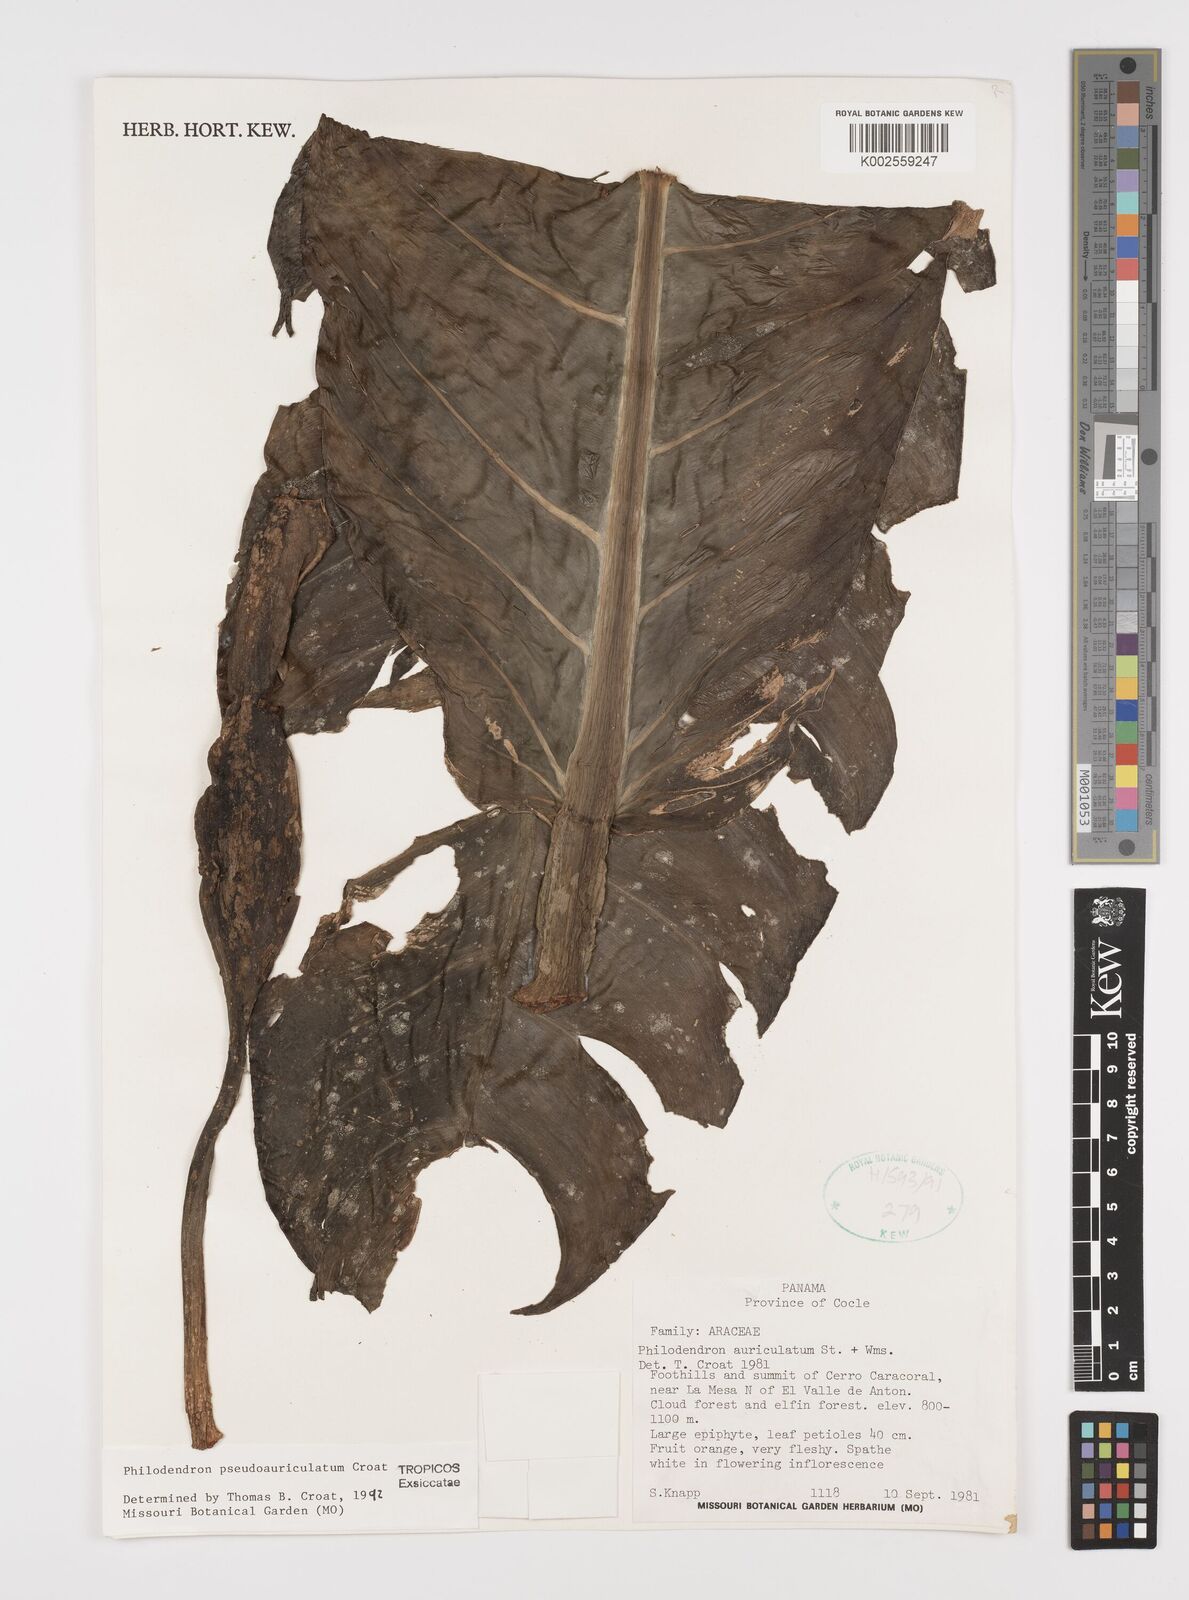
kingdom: Plantae
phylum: Tracheophyta
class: Liliopsida
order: Alismatales
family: Araceae
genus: Philodendron
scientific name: Philodendron pseudauriculatum
